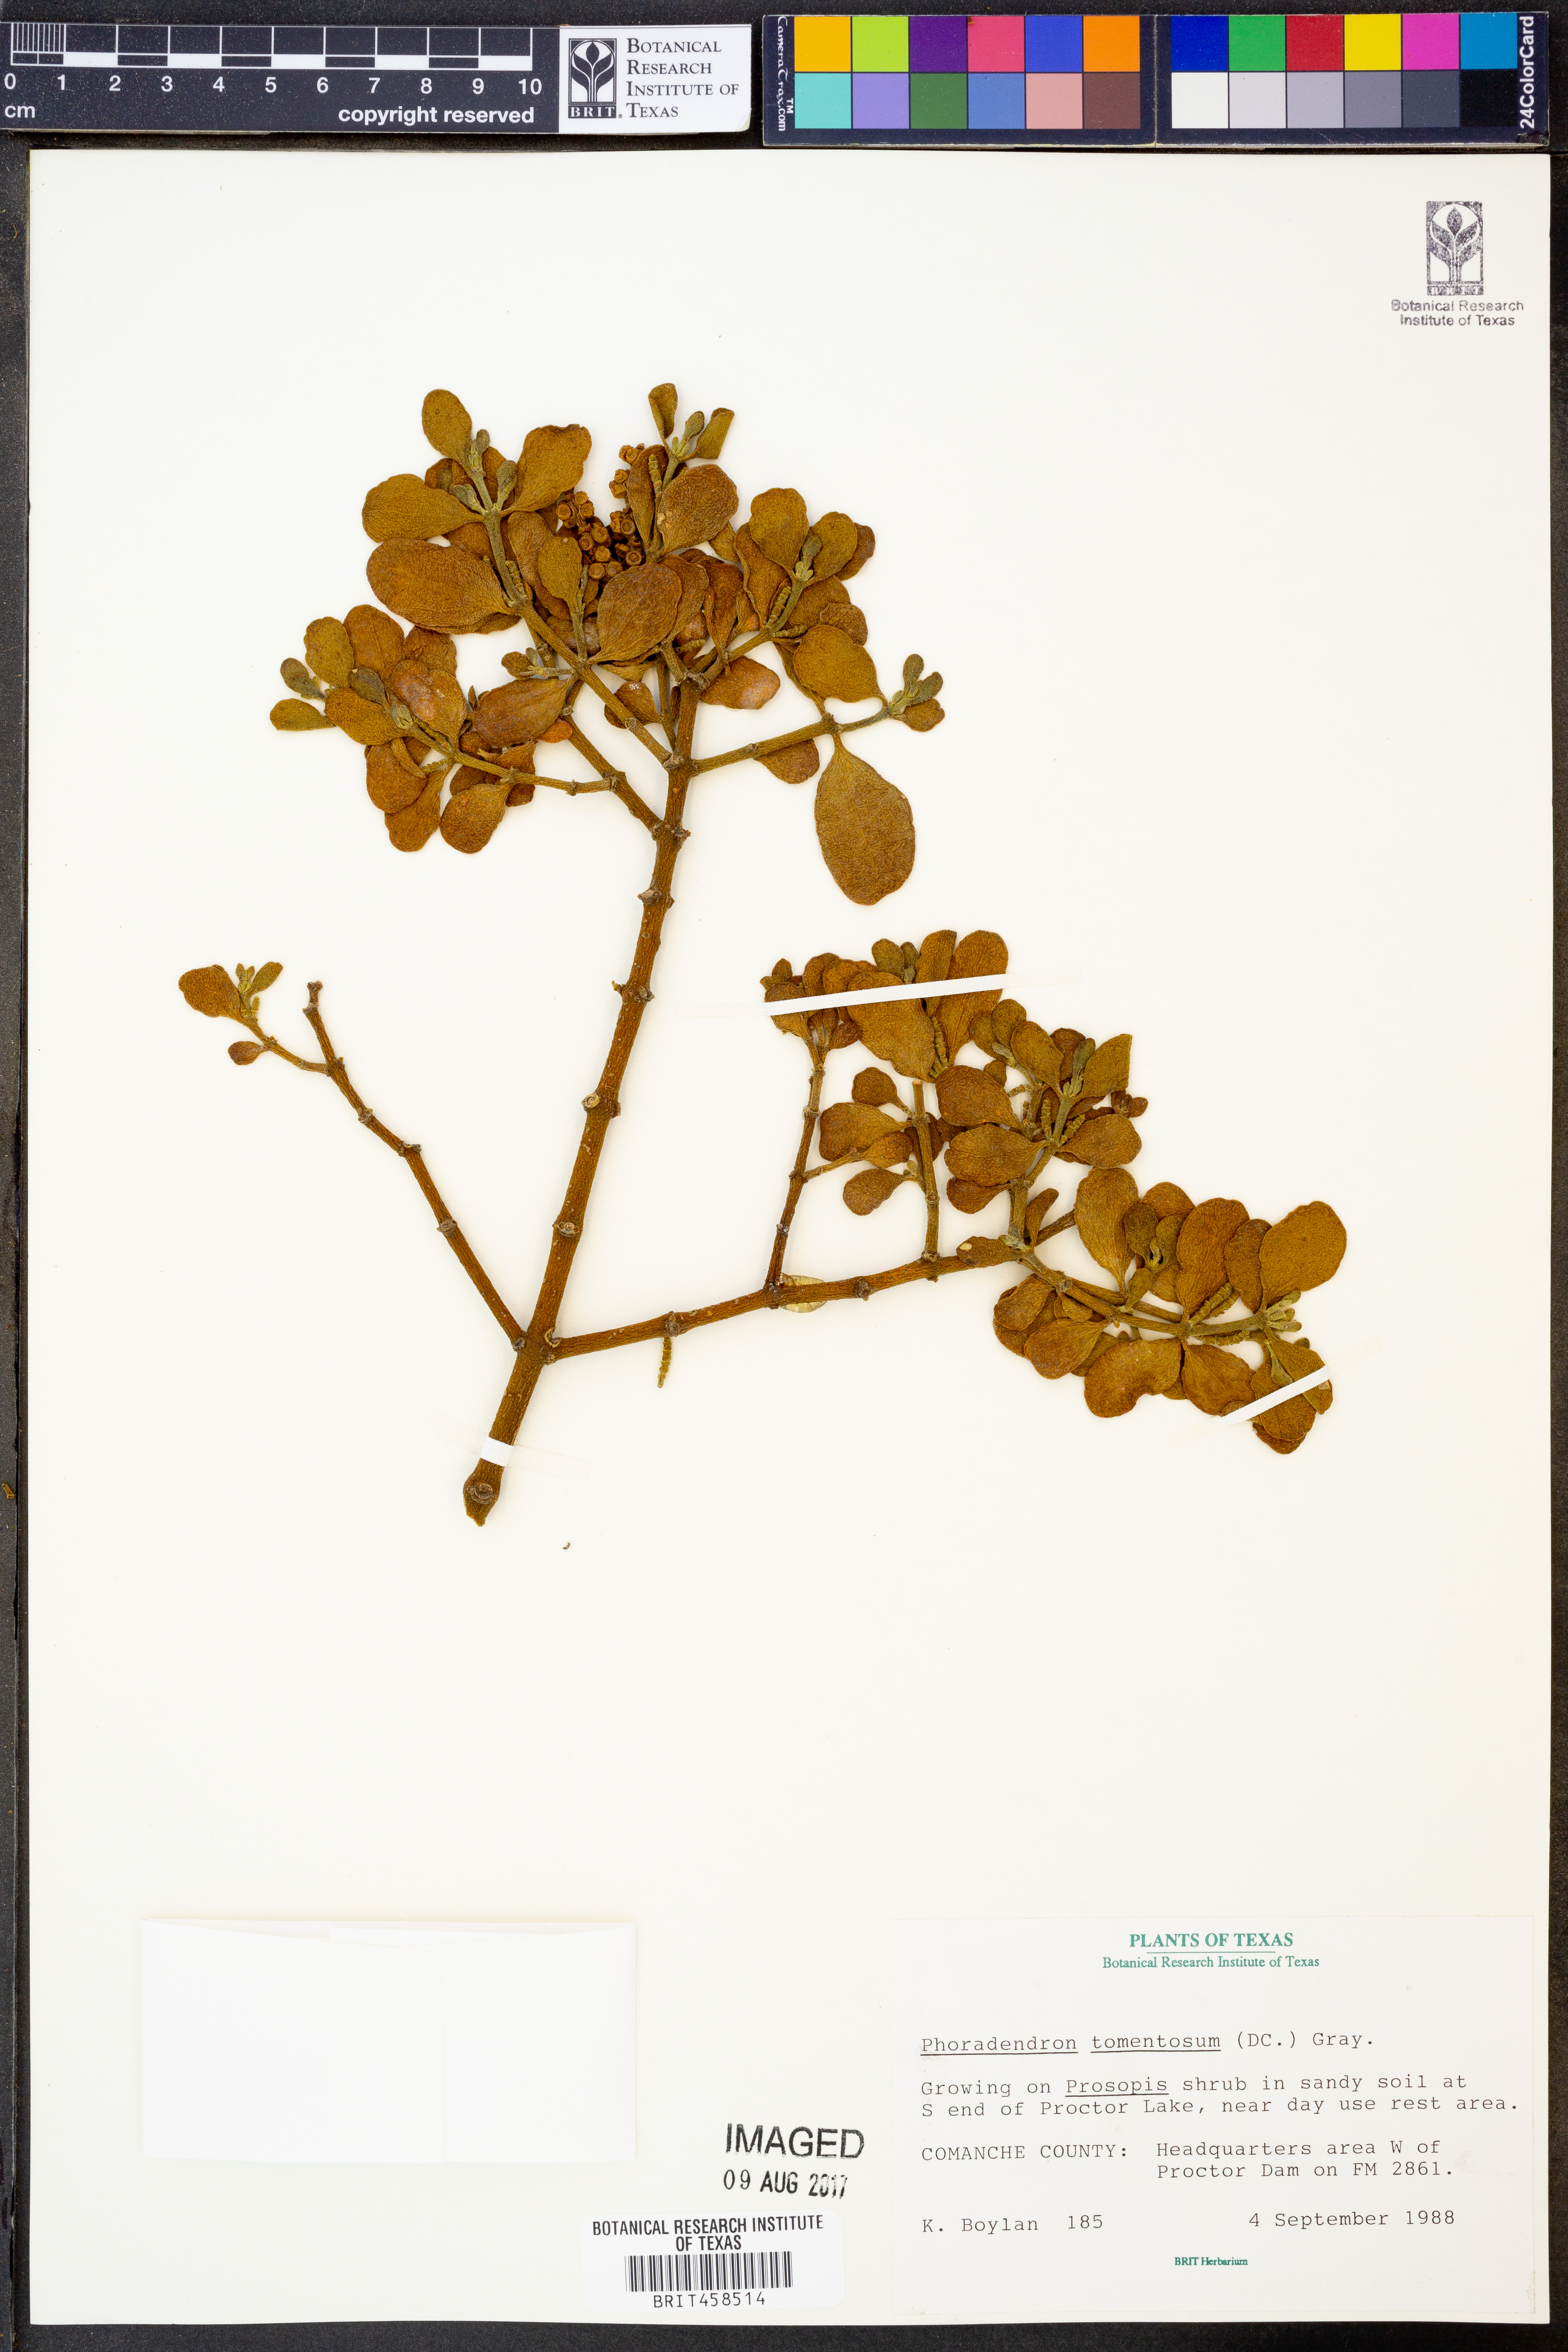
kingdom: Plantae
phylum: Tracheophyta
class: Magnoliopsida
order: Santalales
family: Viscaceae
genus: Phoradendron
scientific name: Phoradendron leucarpum
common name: Pacific mistletoe
